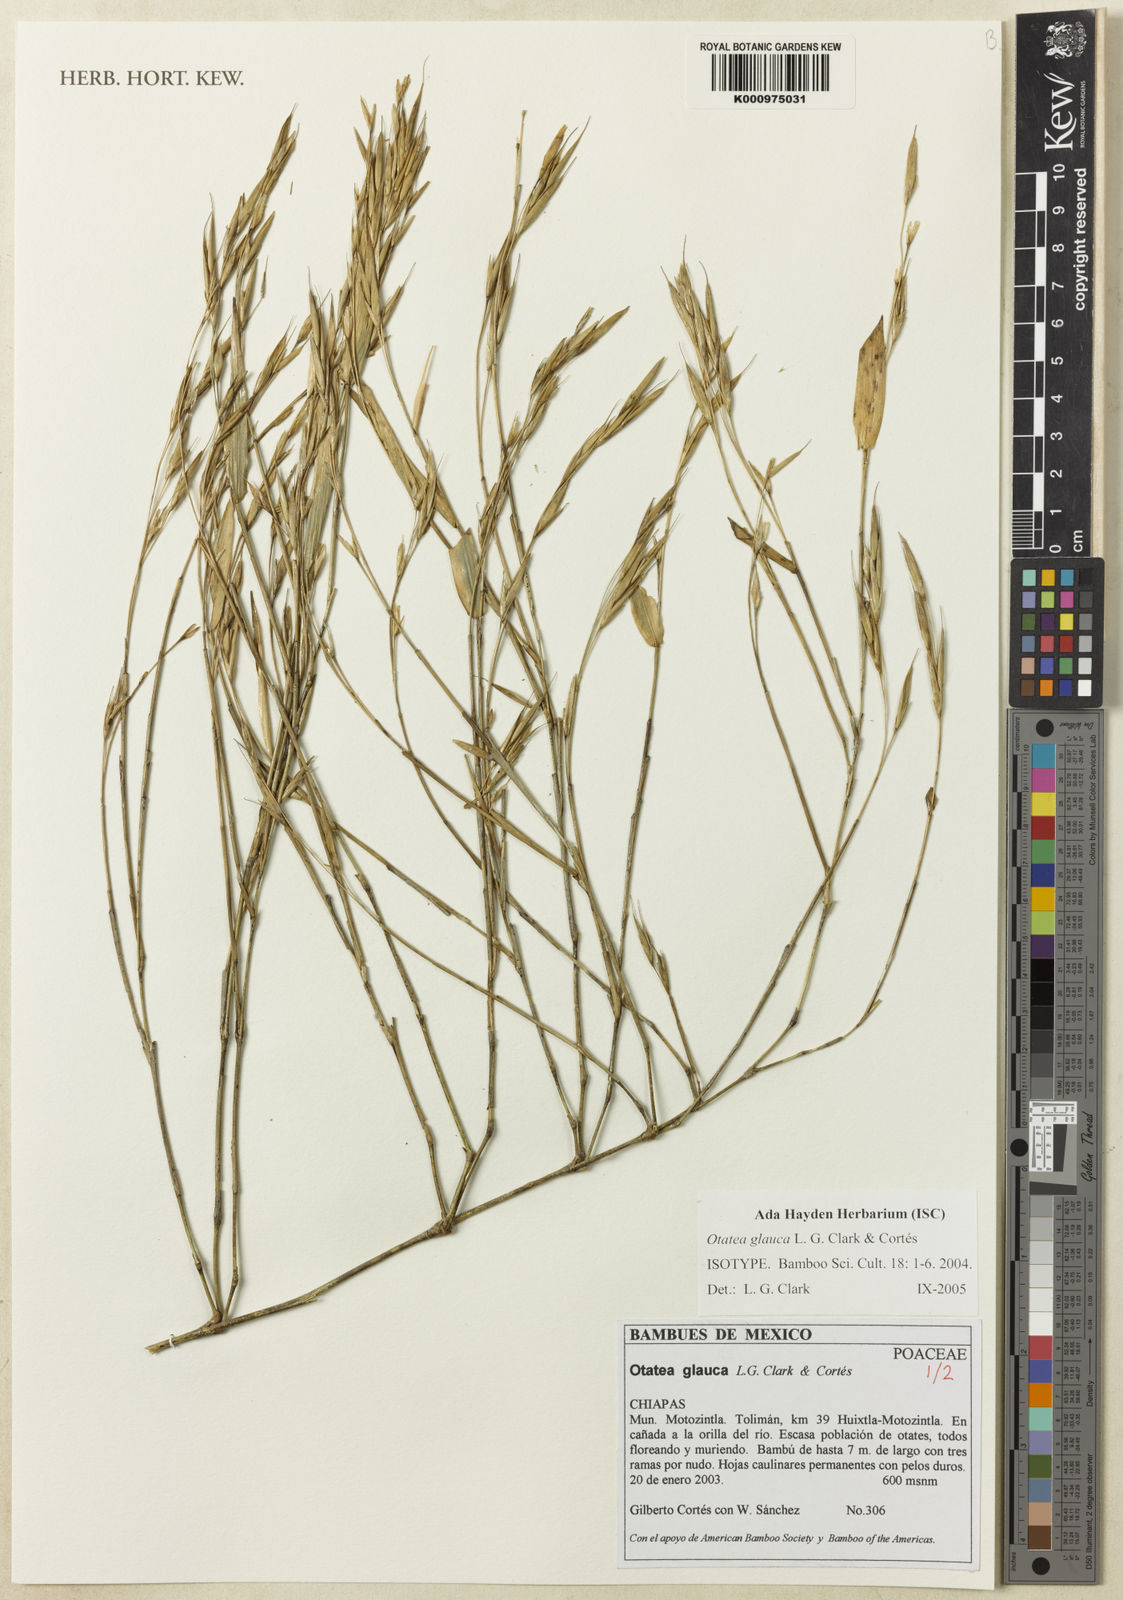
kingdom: Plantae
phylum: Tracheophyta
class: Liliopsida
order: Poales
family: Poaceae
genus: Otatea
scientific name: Otatea
